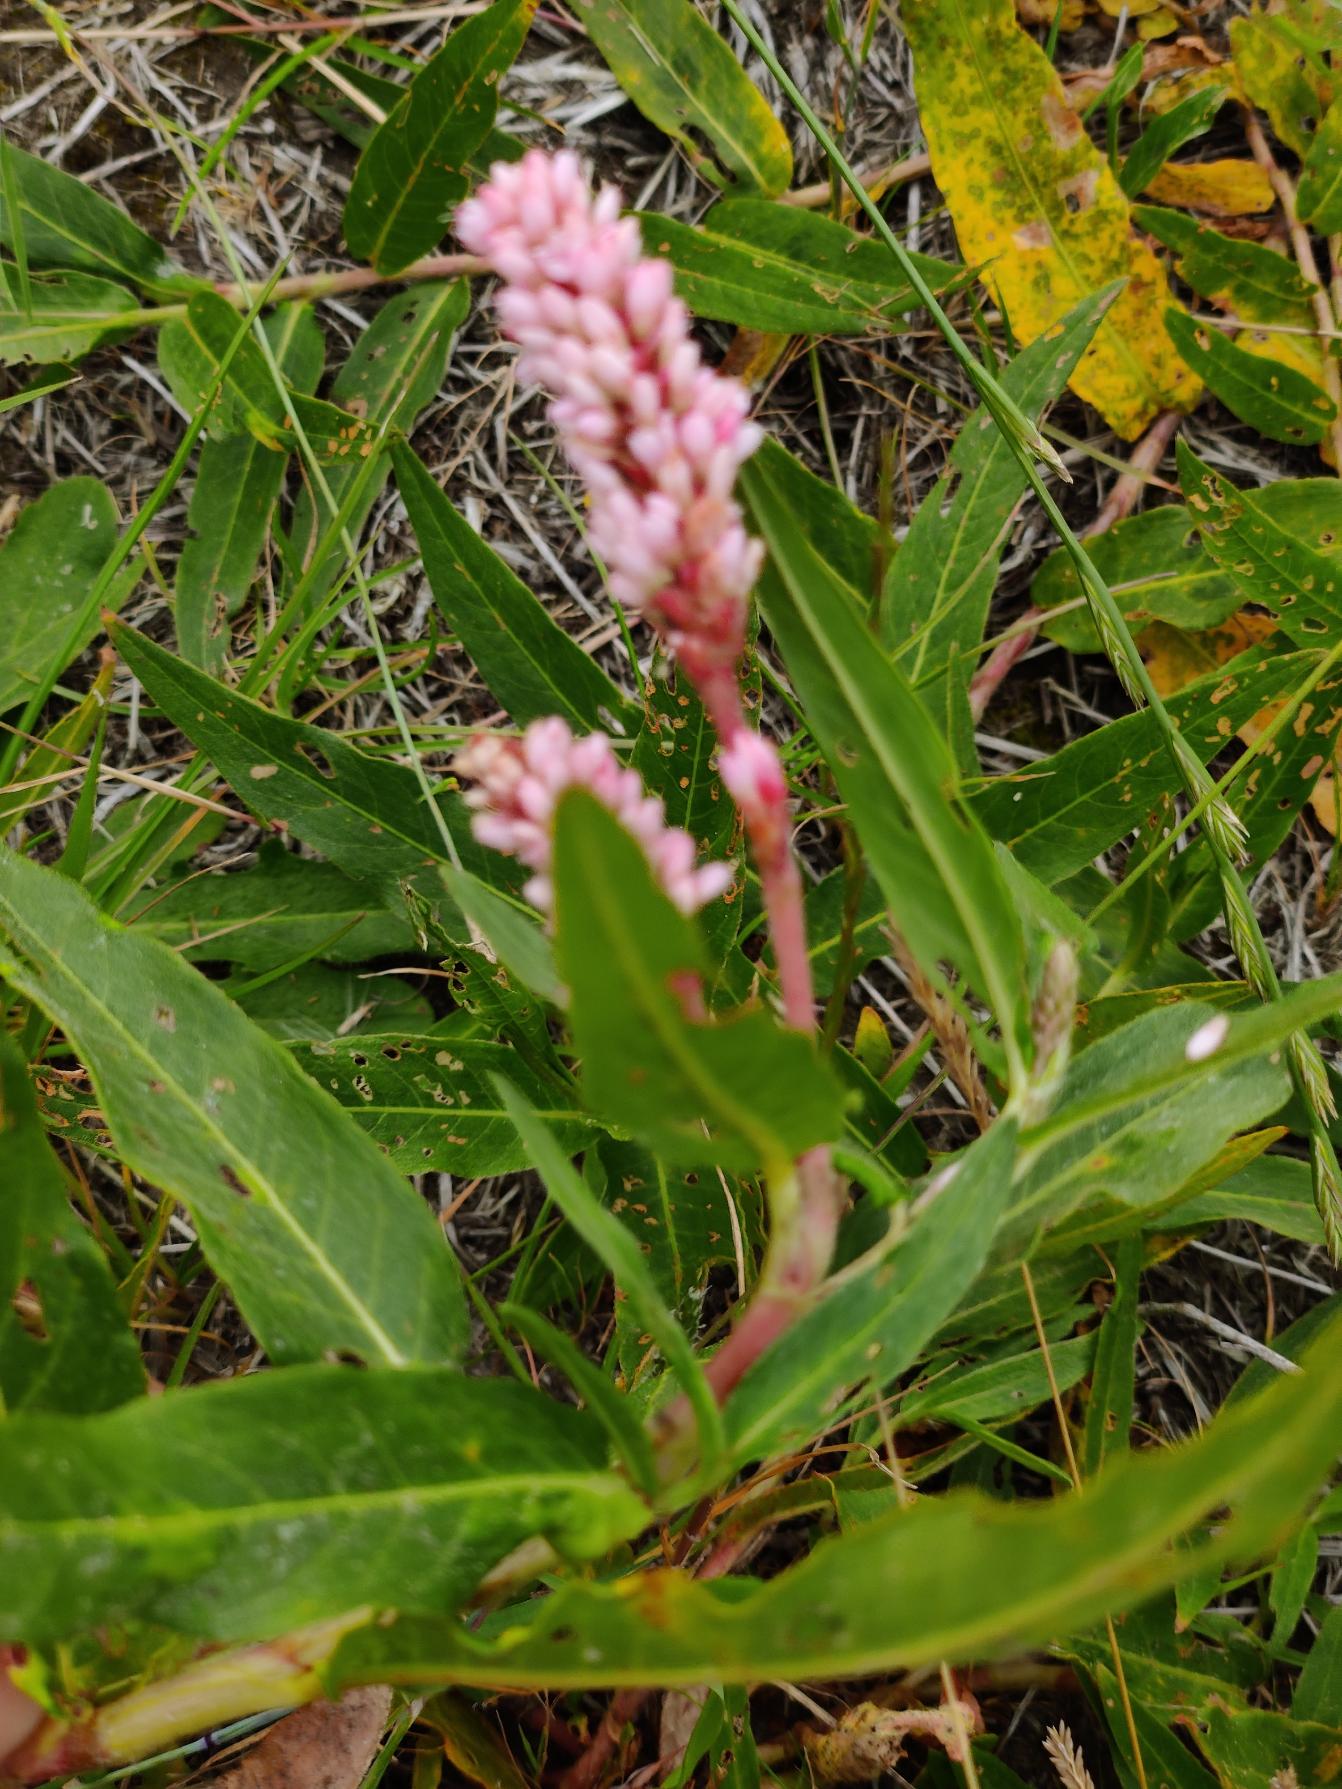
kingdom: Plantae
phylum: Tracheophyta
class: Magnoliopsida
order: Caryophyllales
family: Polygonaceae
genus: Persicaria
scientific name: Persicaria amphibia
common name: Vand-pileurt
